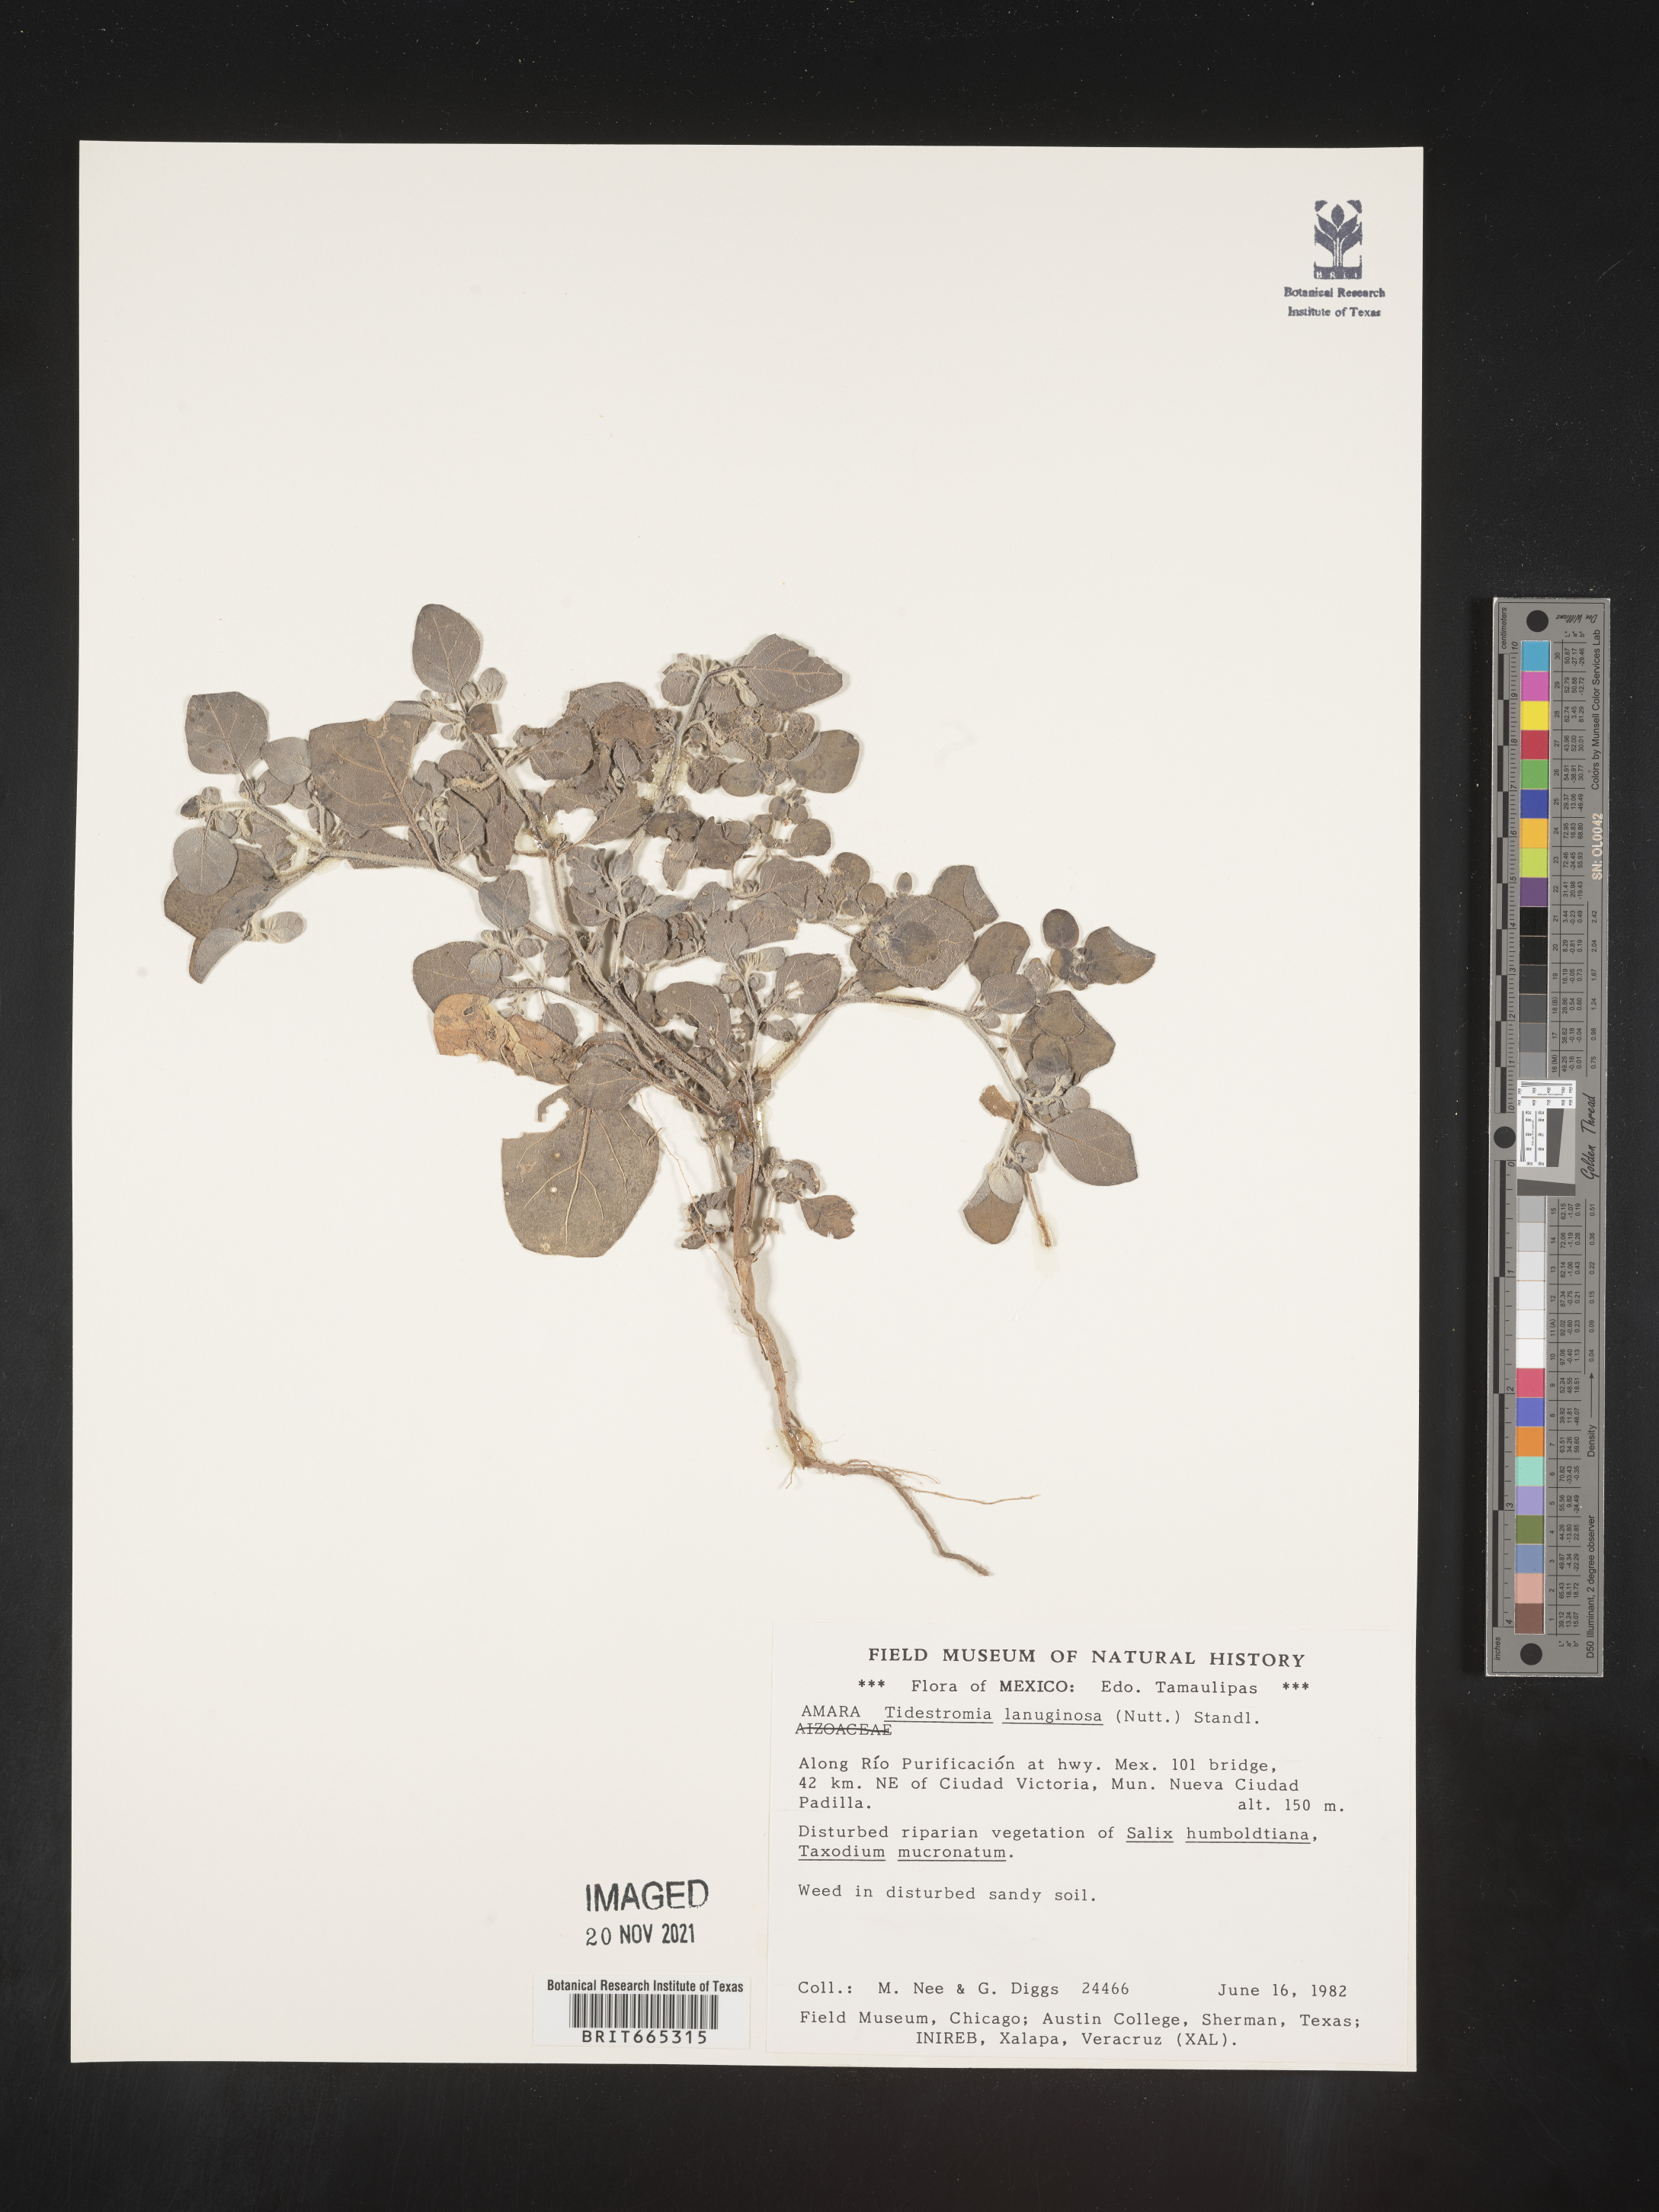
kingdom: Plantae
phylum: Tracheophyta
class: Magnoliopsida
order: Caryophyllales
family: Amaranthaceae
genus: Tidestromia
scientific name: Tidestromia
